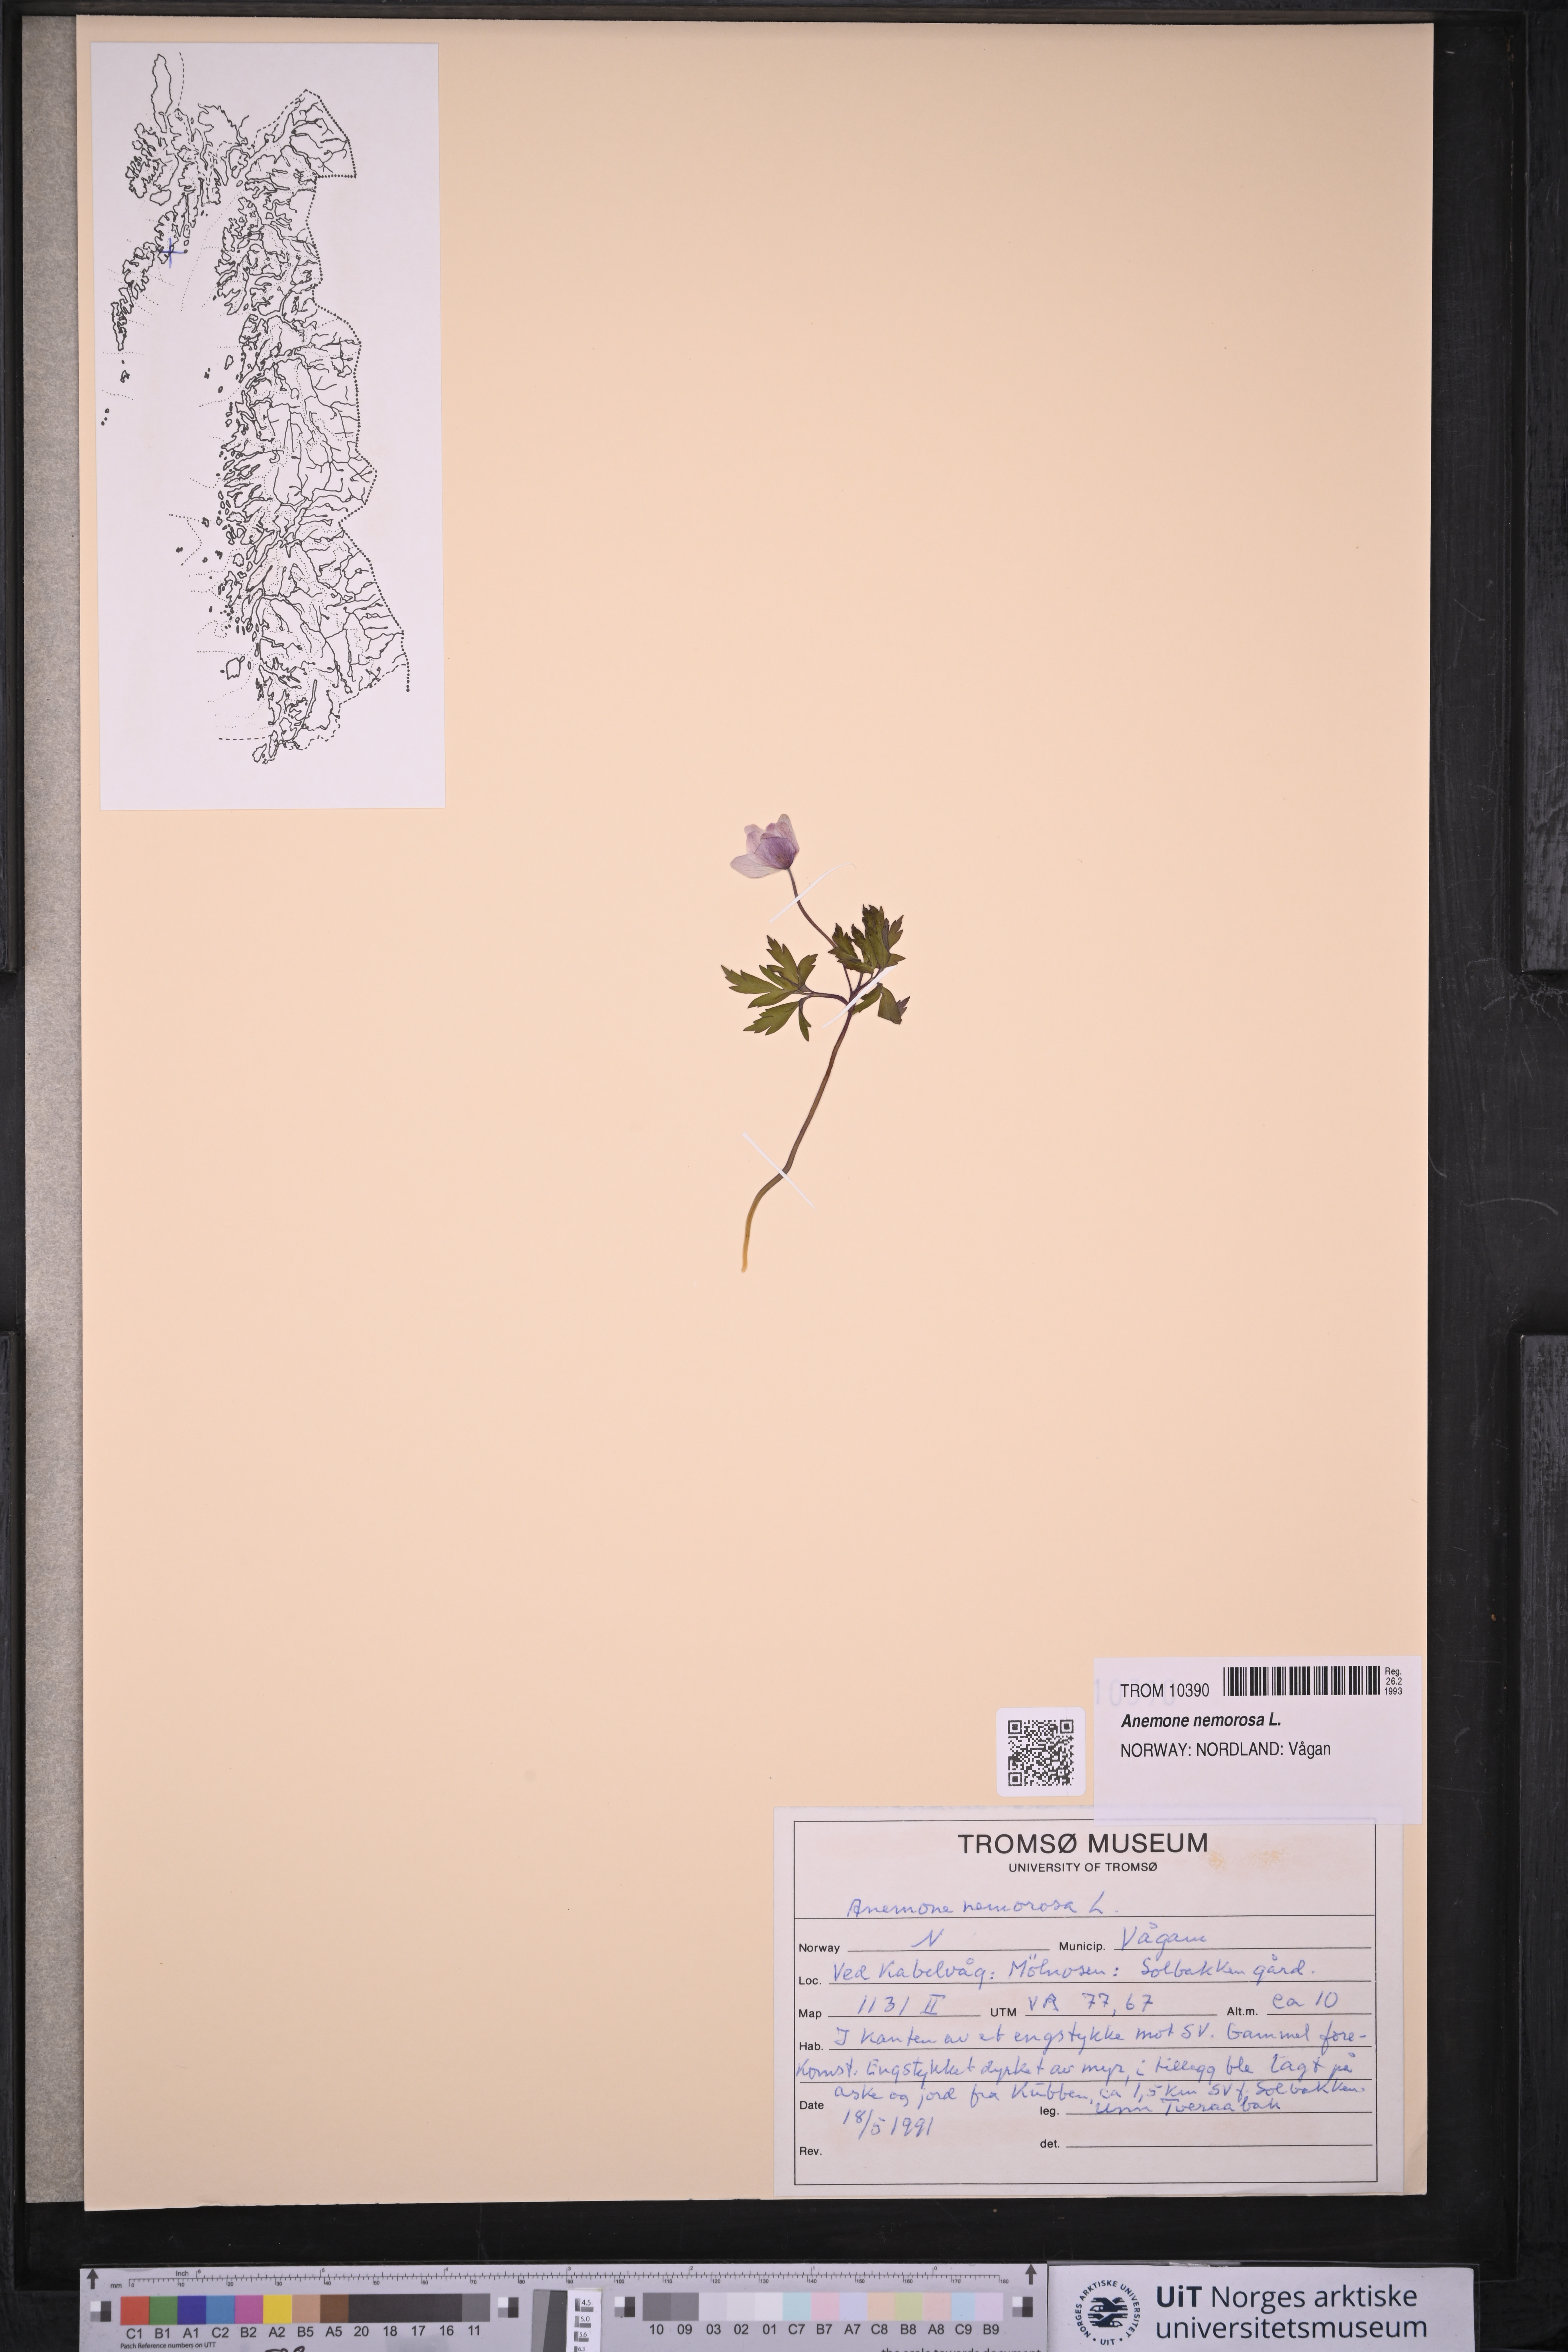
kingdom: Plantae
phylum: Tracheophyta
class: Magnoliopsida
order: Ranunculales
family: Ranunculaceae
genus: Anemone
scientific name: Anemone nemorosa
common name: Wood anemone
